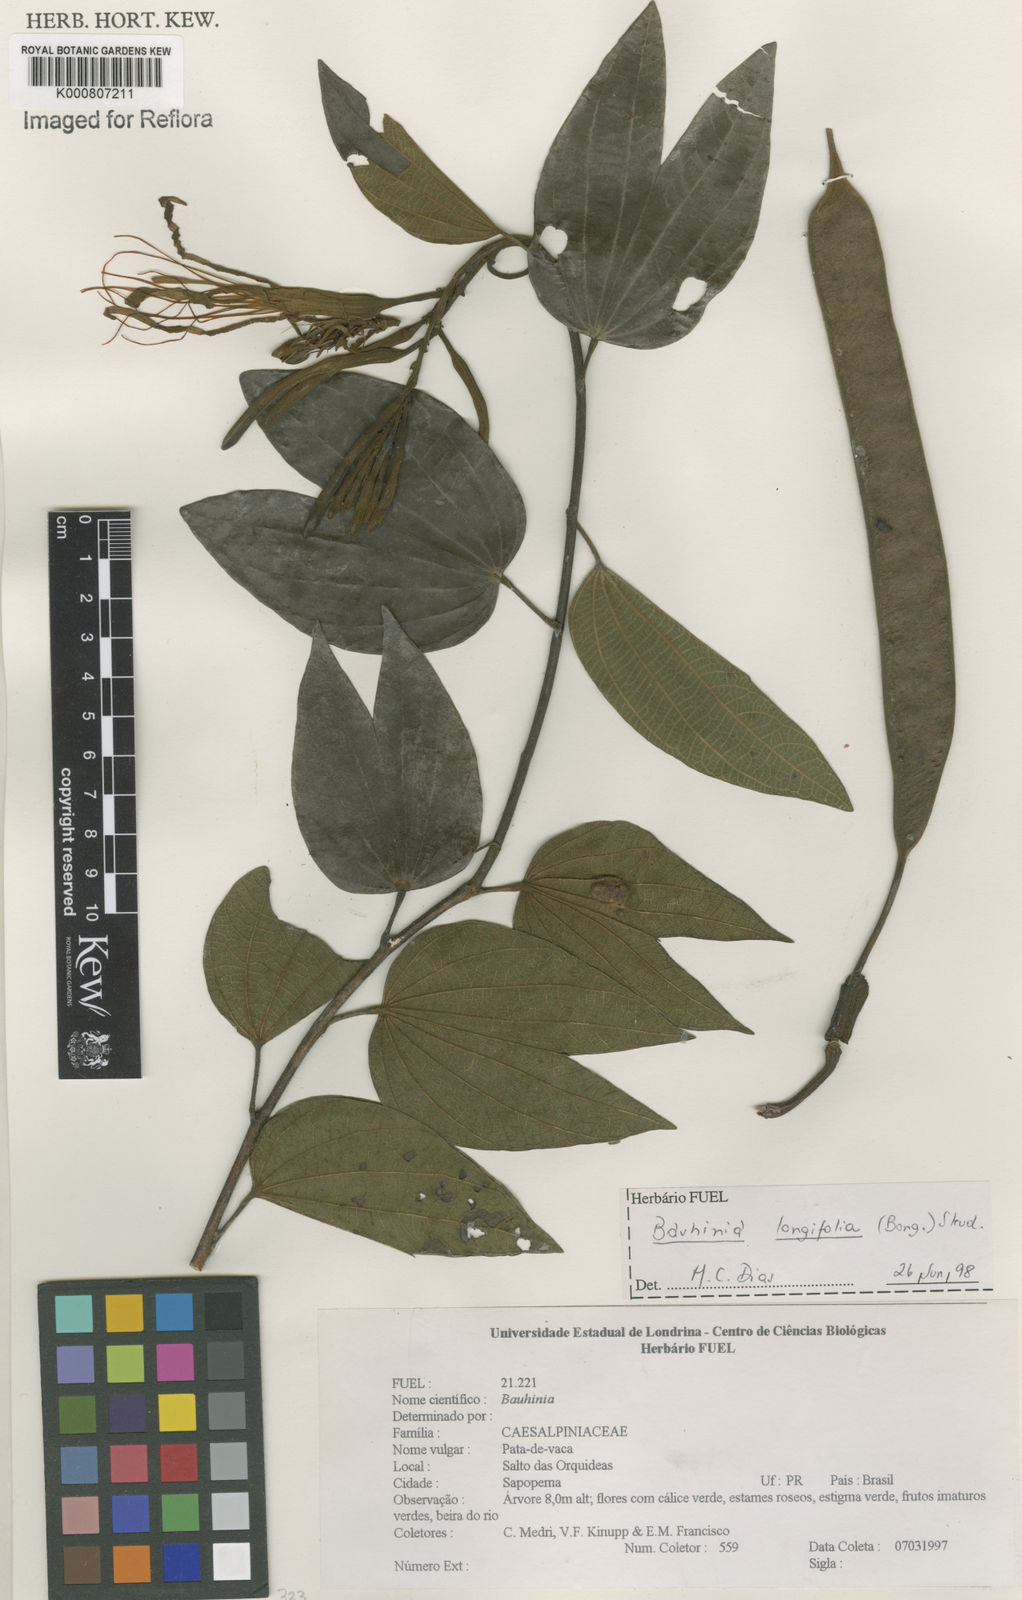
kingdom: Plantae
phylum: Tracheophyta
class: Magnoliopsida
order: Fabales
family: Fabaceae
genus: Bauhinia
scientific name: Bauhinia longifolia
